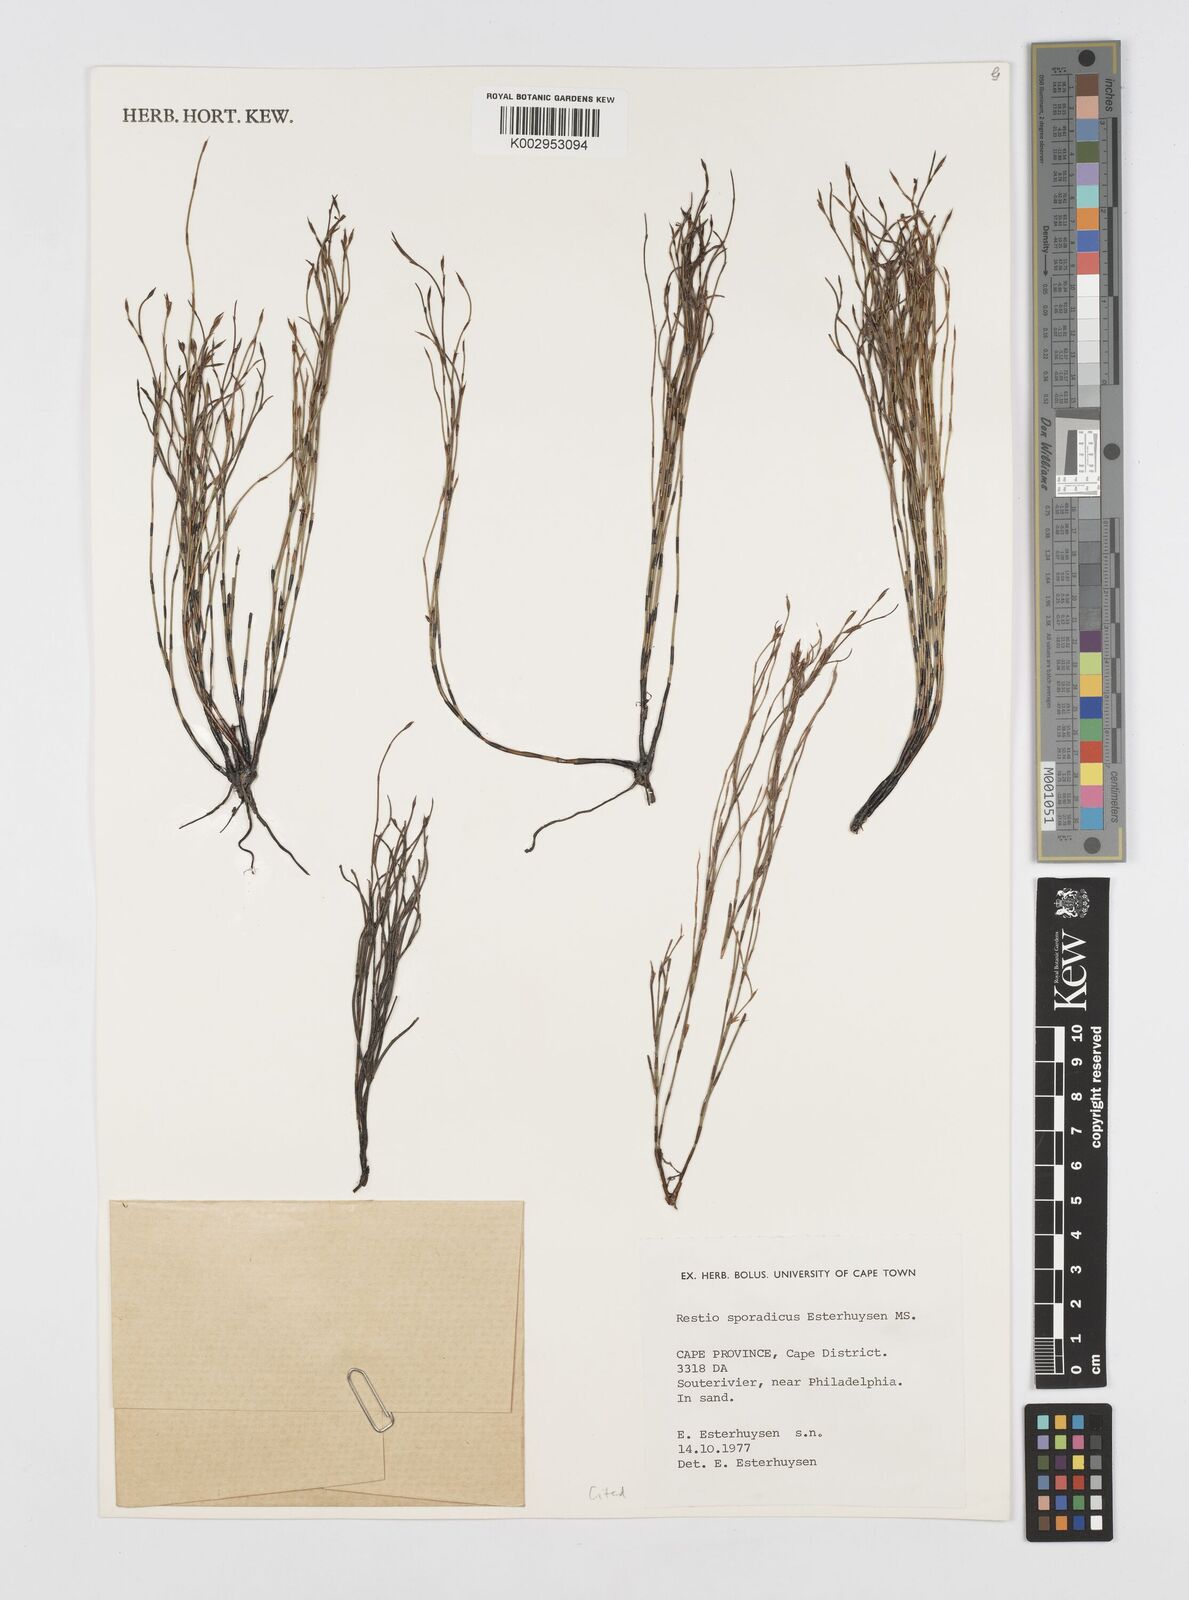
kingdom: Plantae
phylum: Tracheophyta
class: Liliopsida
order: Poales
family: Restionaceae
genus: Restio
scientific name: Restio sporadicus
